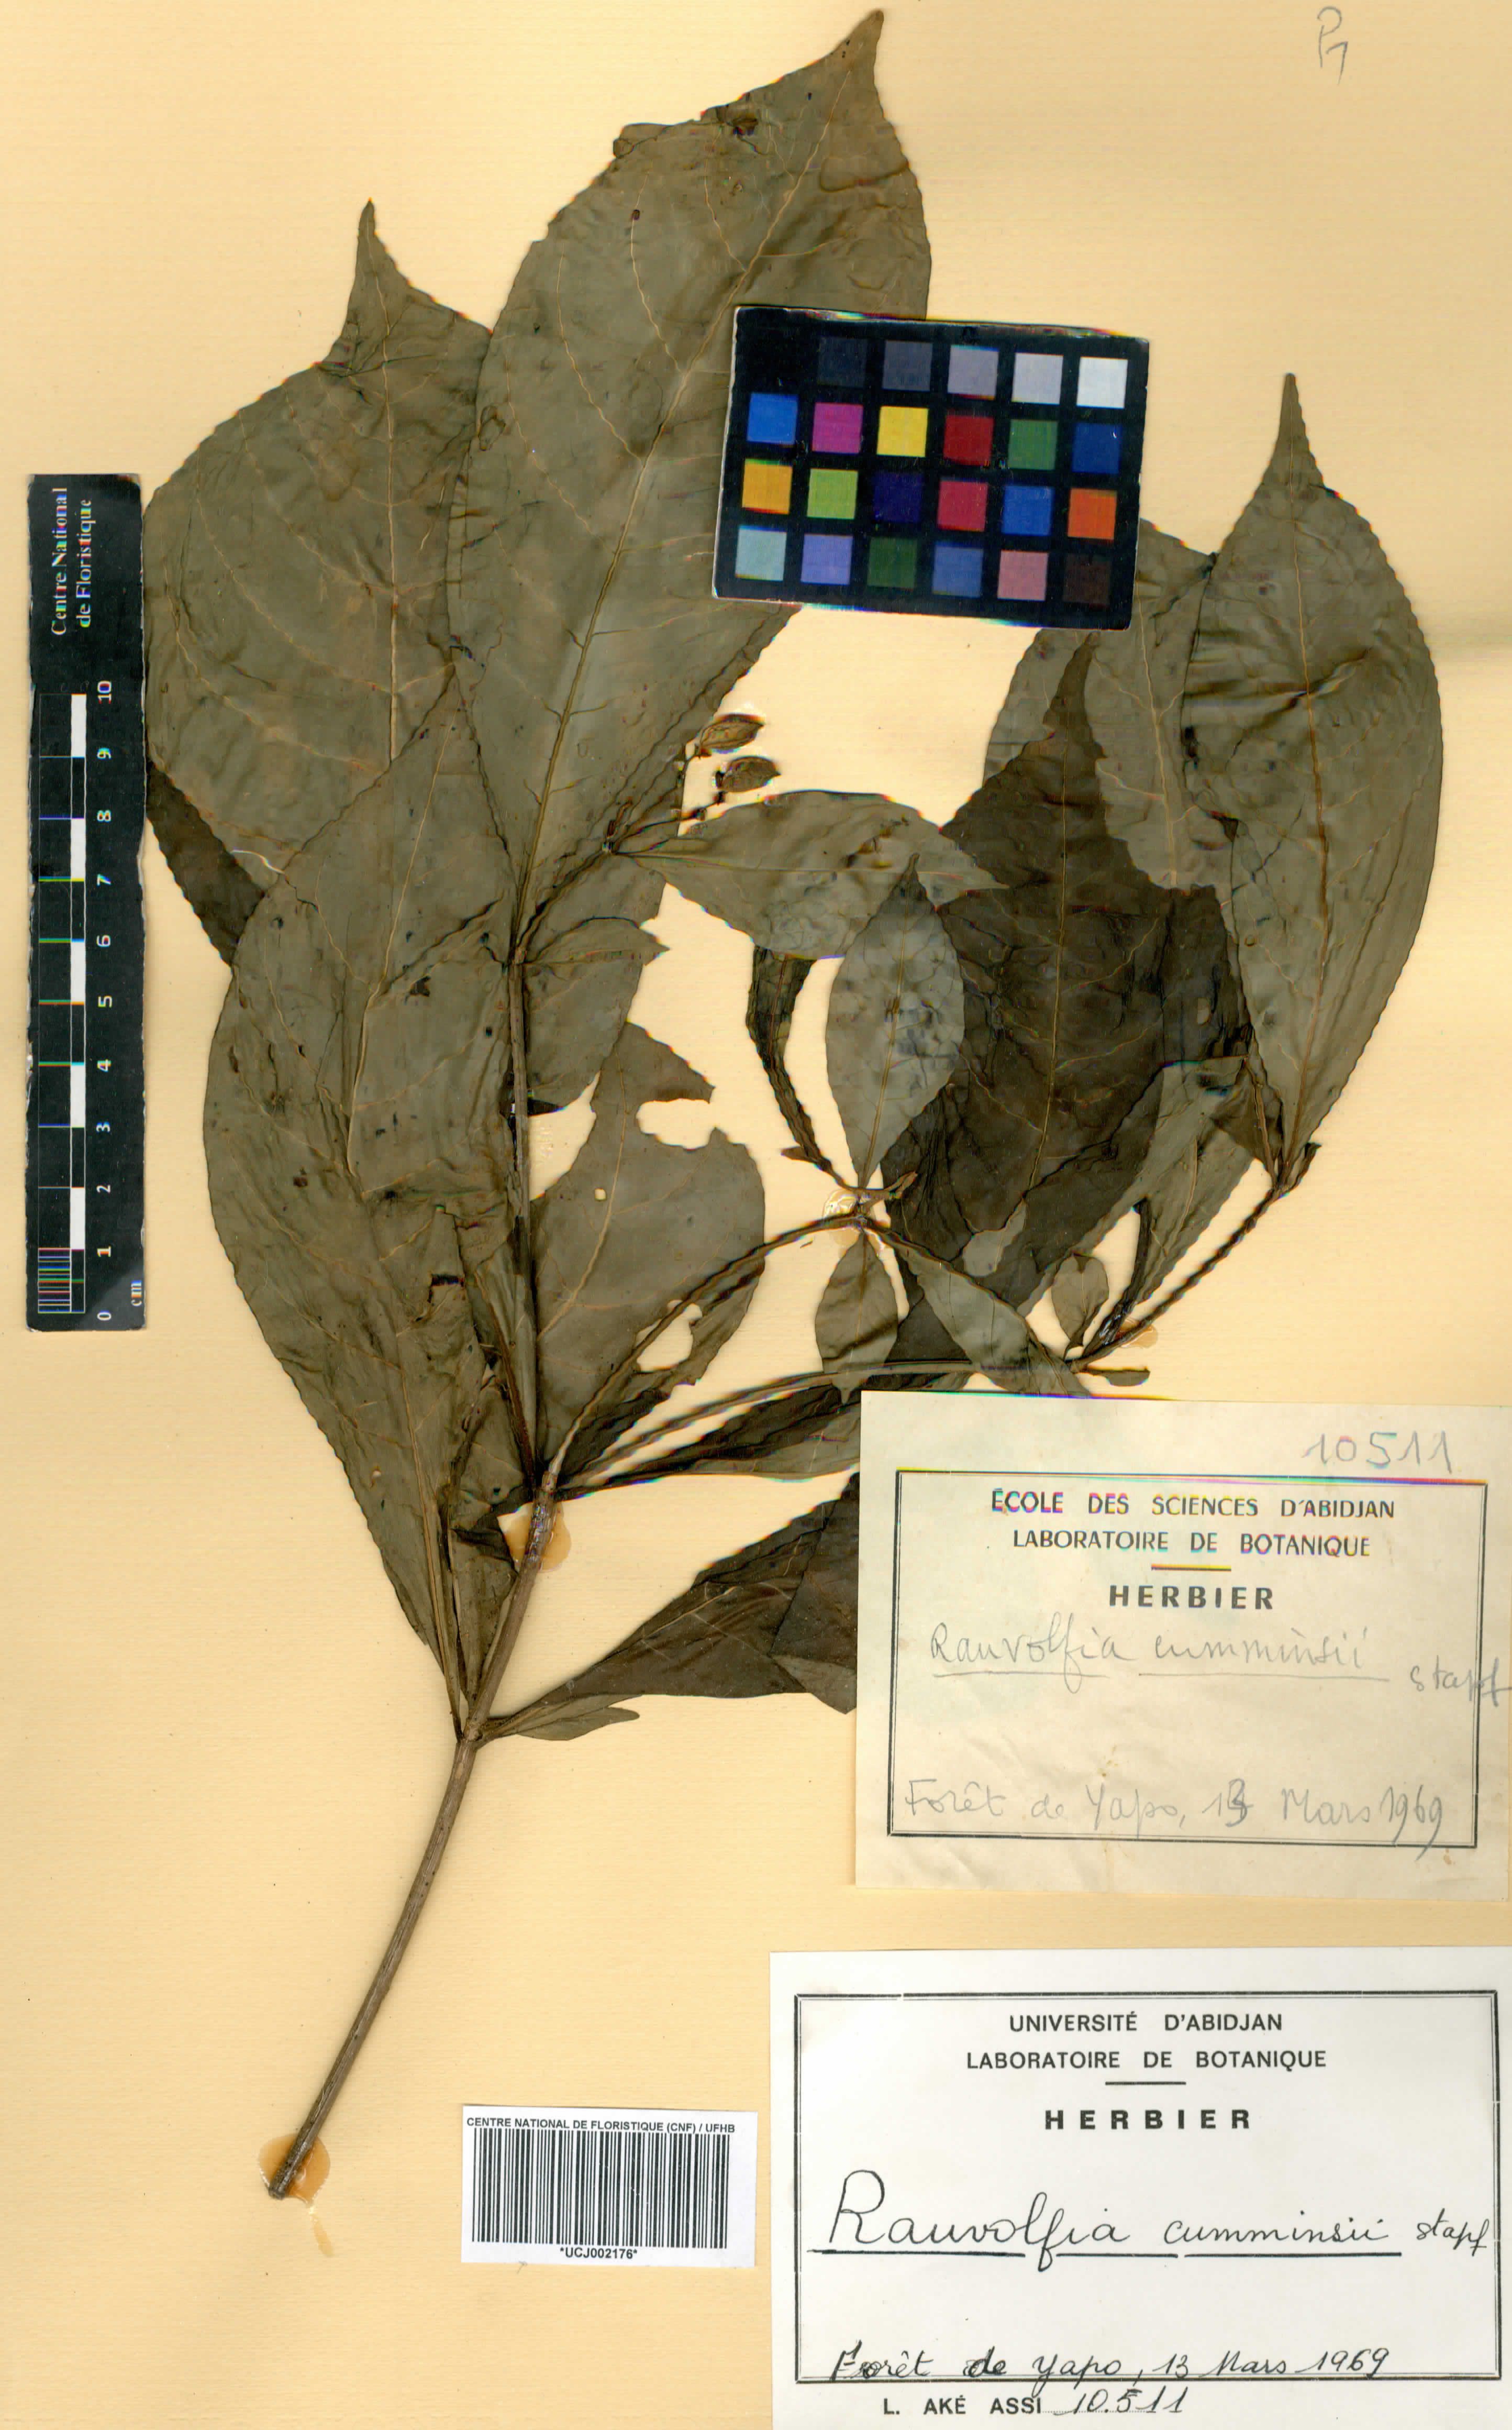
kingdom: Plantae
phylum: Tracheophyta
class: Magnoliopsida
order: Gentianales
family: Apocynaceae
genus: Rauvolfia
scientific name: Rauvolfia mannii
